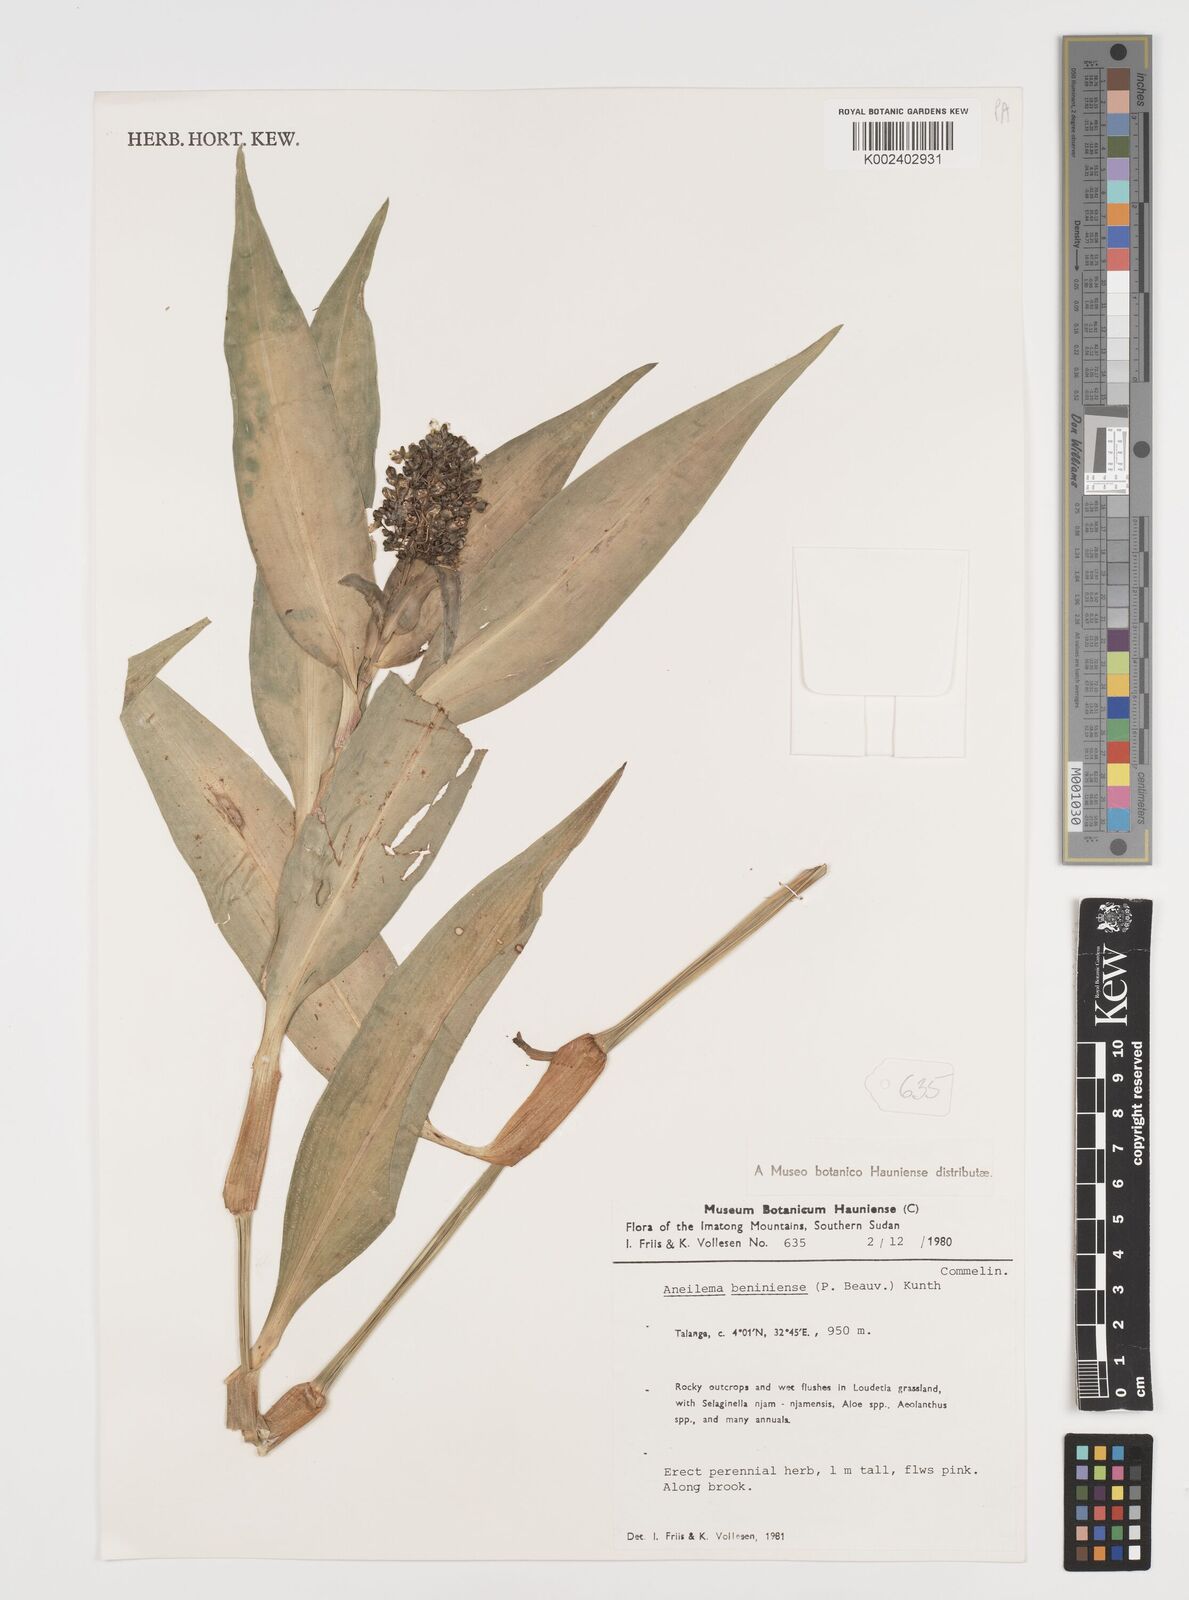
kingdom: Plantae
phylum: Tracheophyta
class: Liliopsida
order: Commelinales
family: Commelinaceae
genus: Aneilema
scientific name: Aneilema beniniense
